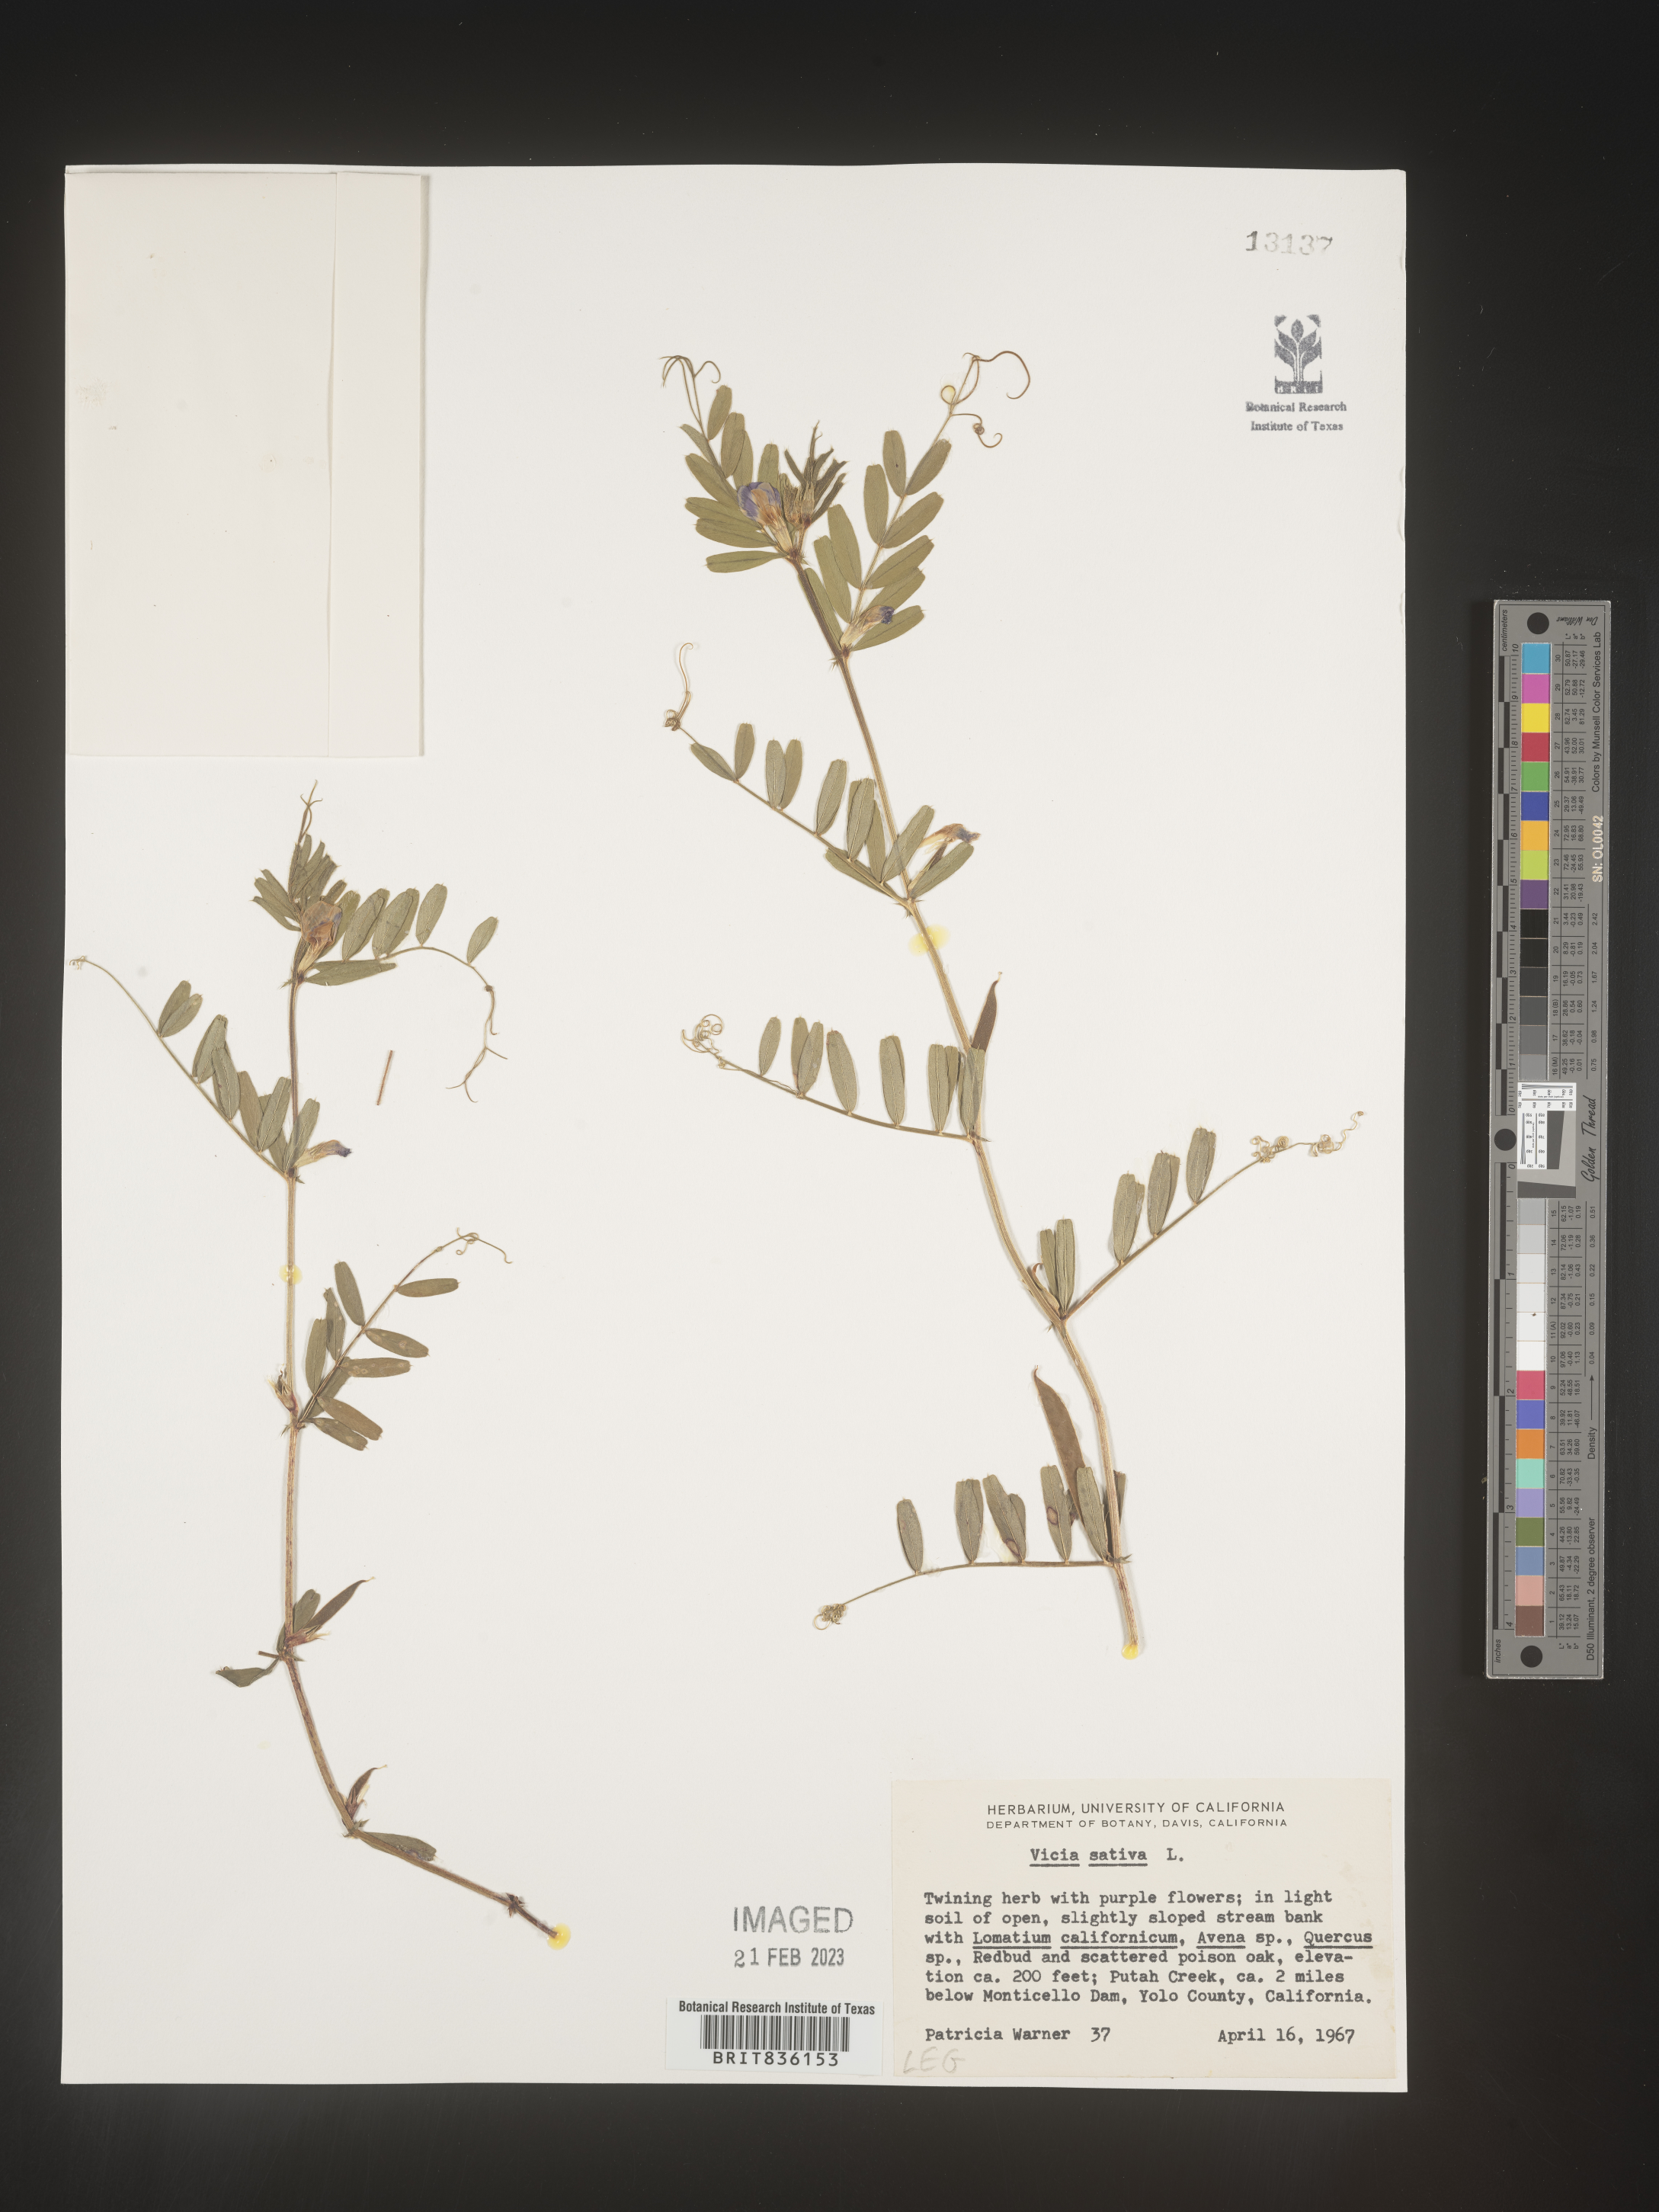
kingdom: Plantae
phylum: Tracheophyta
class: Magnoliopsida
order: Fabales
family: Fabaceae
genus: Vicia
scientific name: Vicia sativa
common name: Garden vetch
